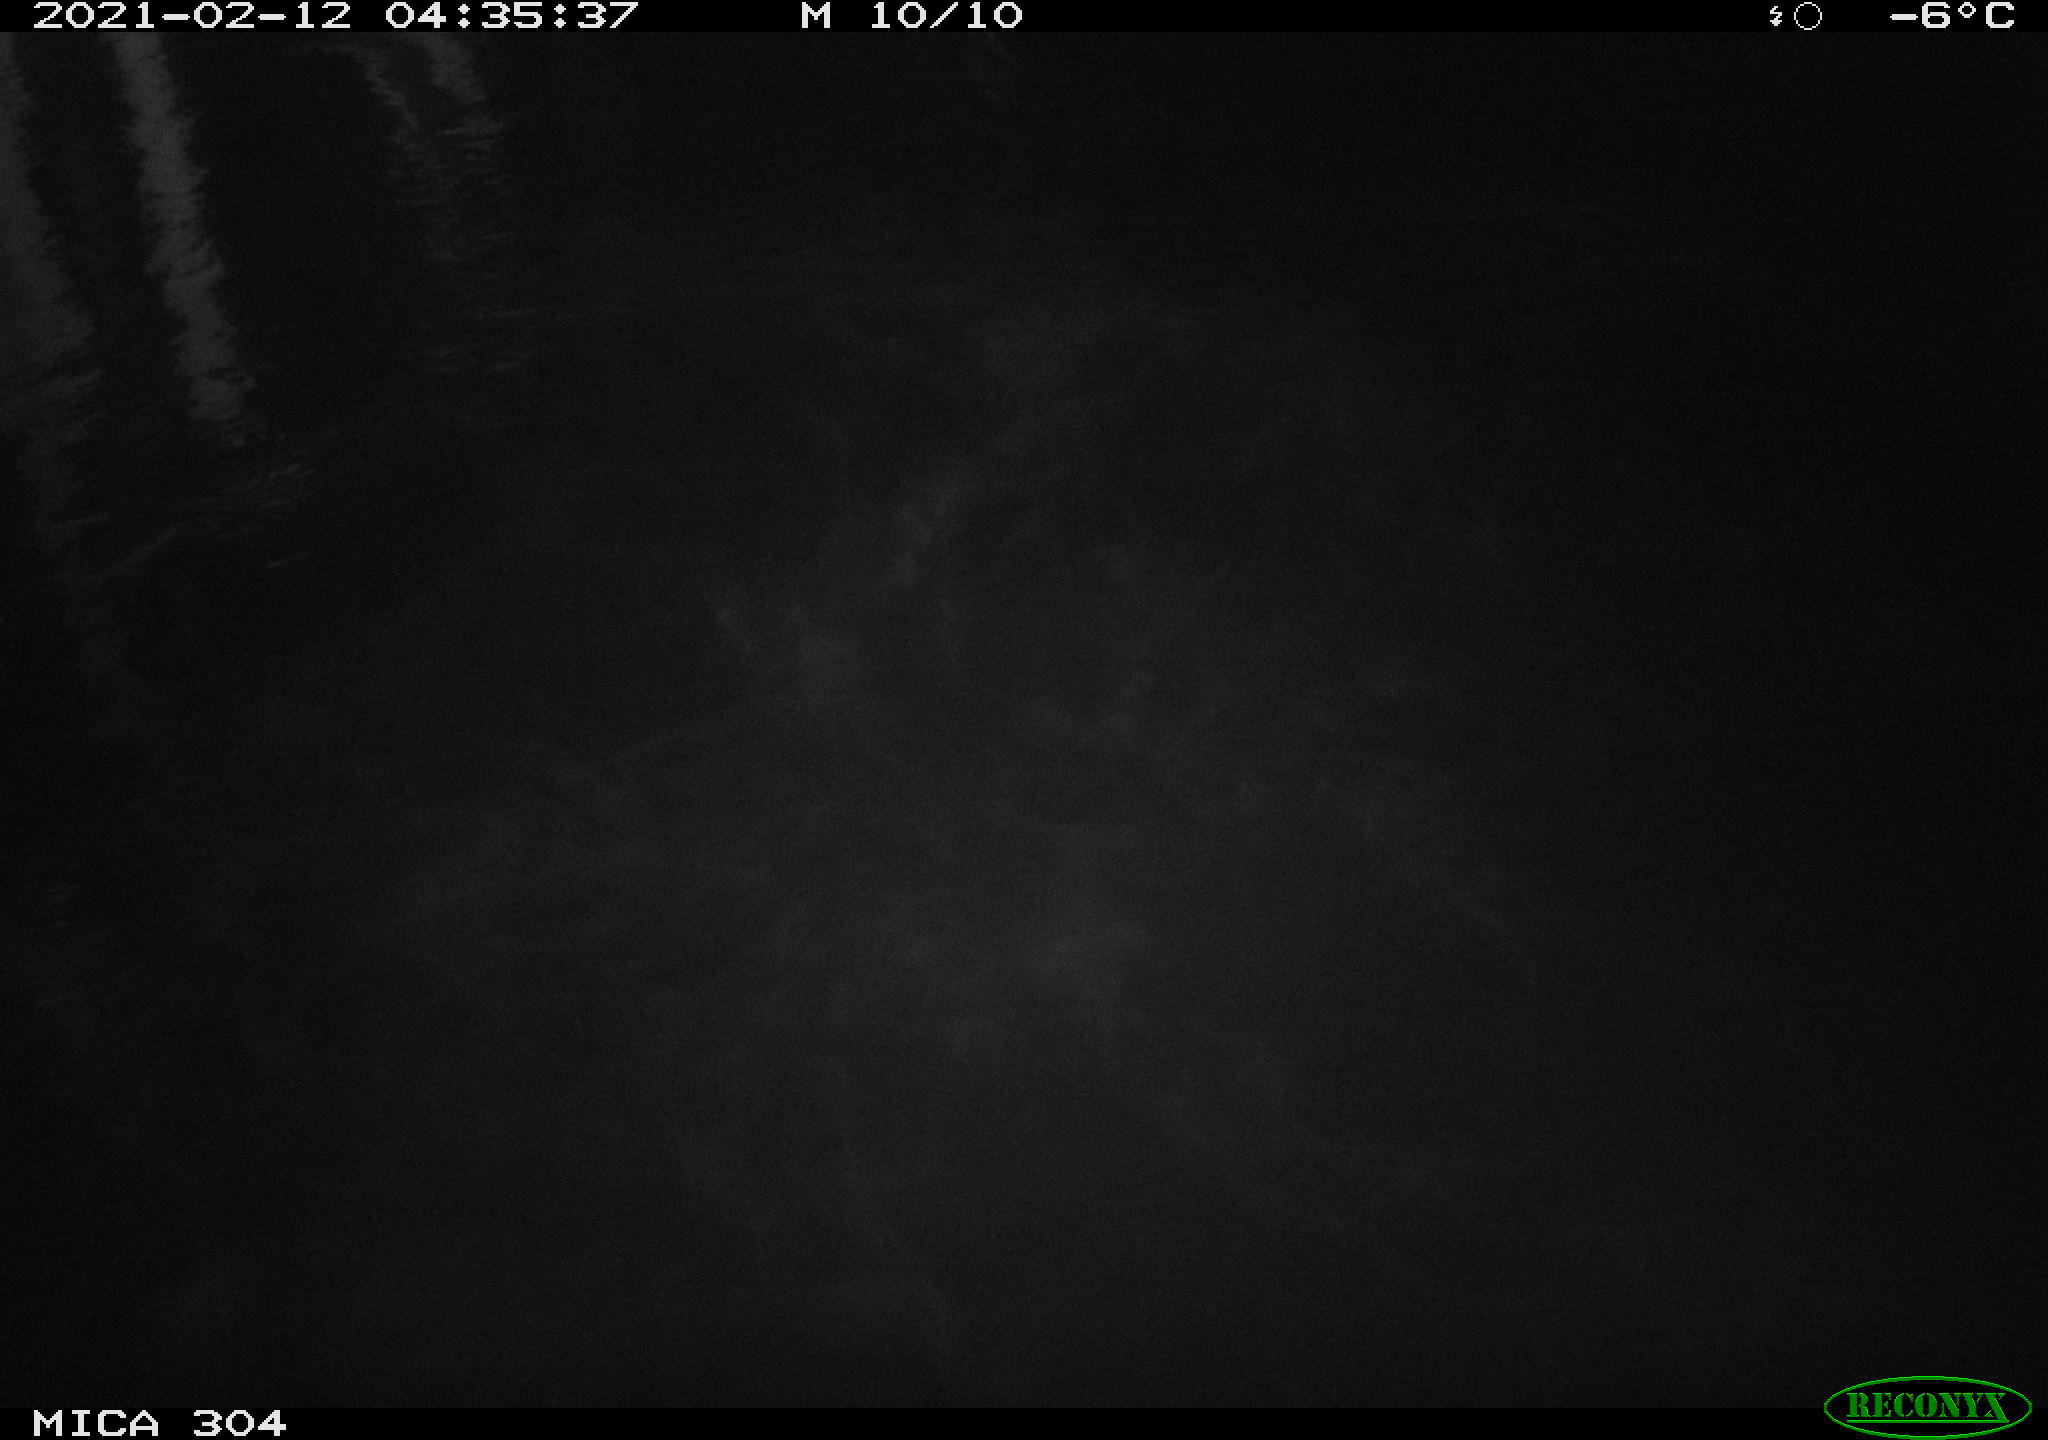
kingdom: Animalia
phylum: Chordata
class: Aves
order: Anseriformes
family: Anatidae
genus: Anas
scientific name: Anas platyrhynchos
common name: Mallard
